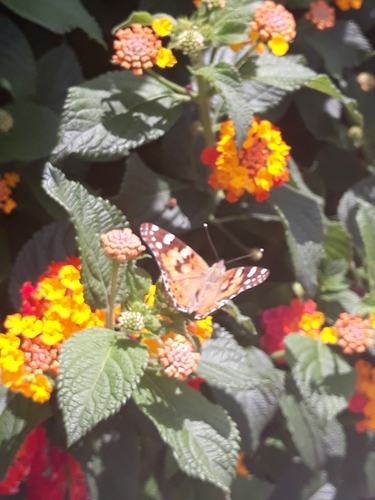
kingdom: Animalia
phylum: Arthropoda
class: Insecta
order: Lepidoptera
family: Nymphalidae
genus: Vanessa
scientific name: Vanessa cardui
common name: Painted lady
